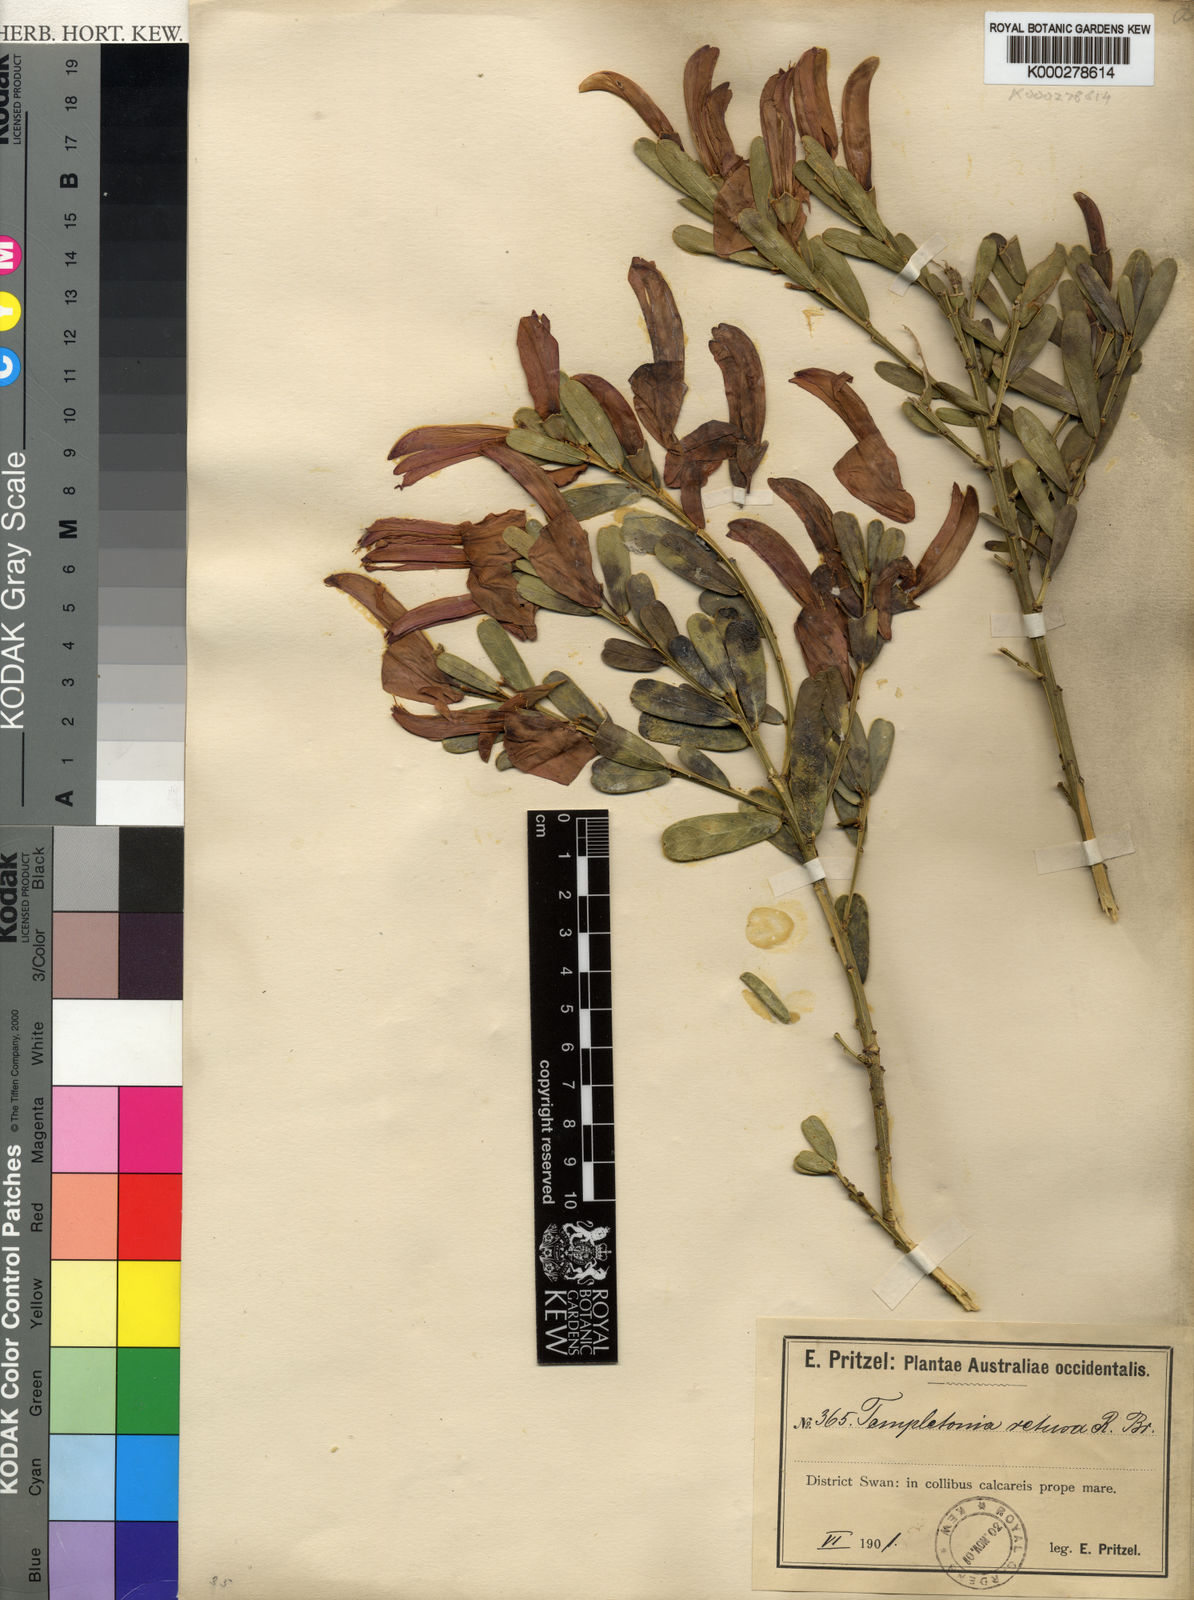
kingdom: Plantae
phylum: Tracheophyta
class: Magnoliopsida
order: Fabales
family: Fabaceae
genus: Templetonia
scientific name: Templetonia retusa
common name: Cockies'-tongue
